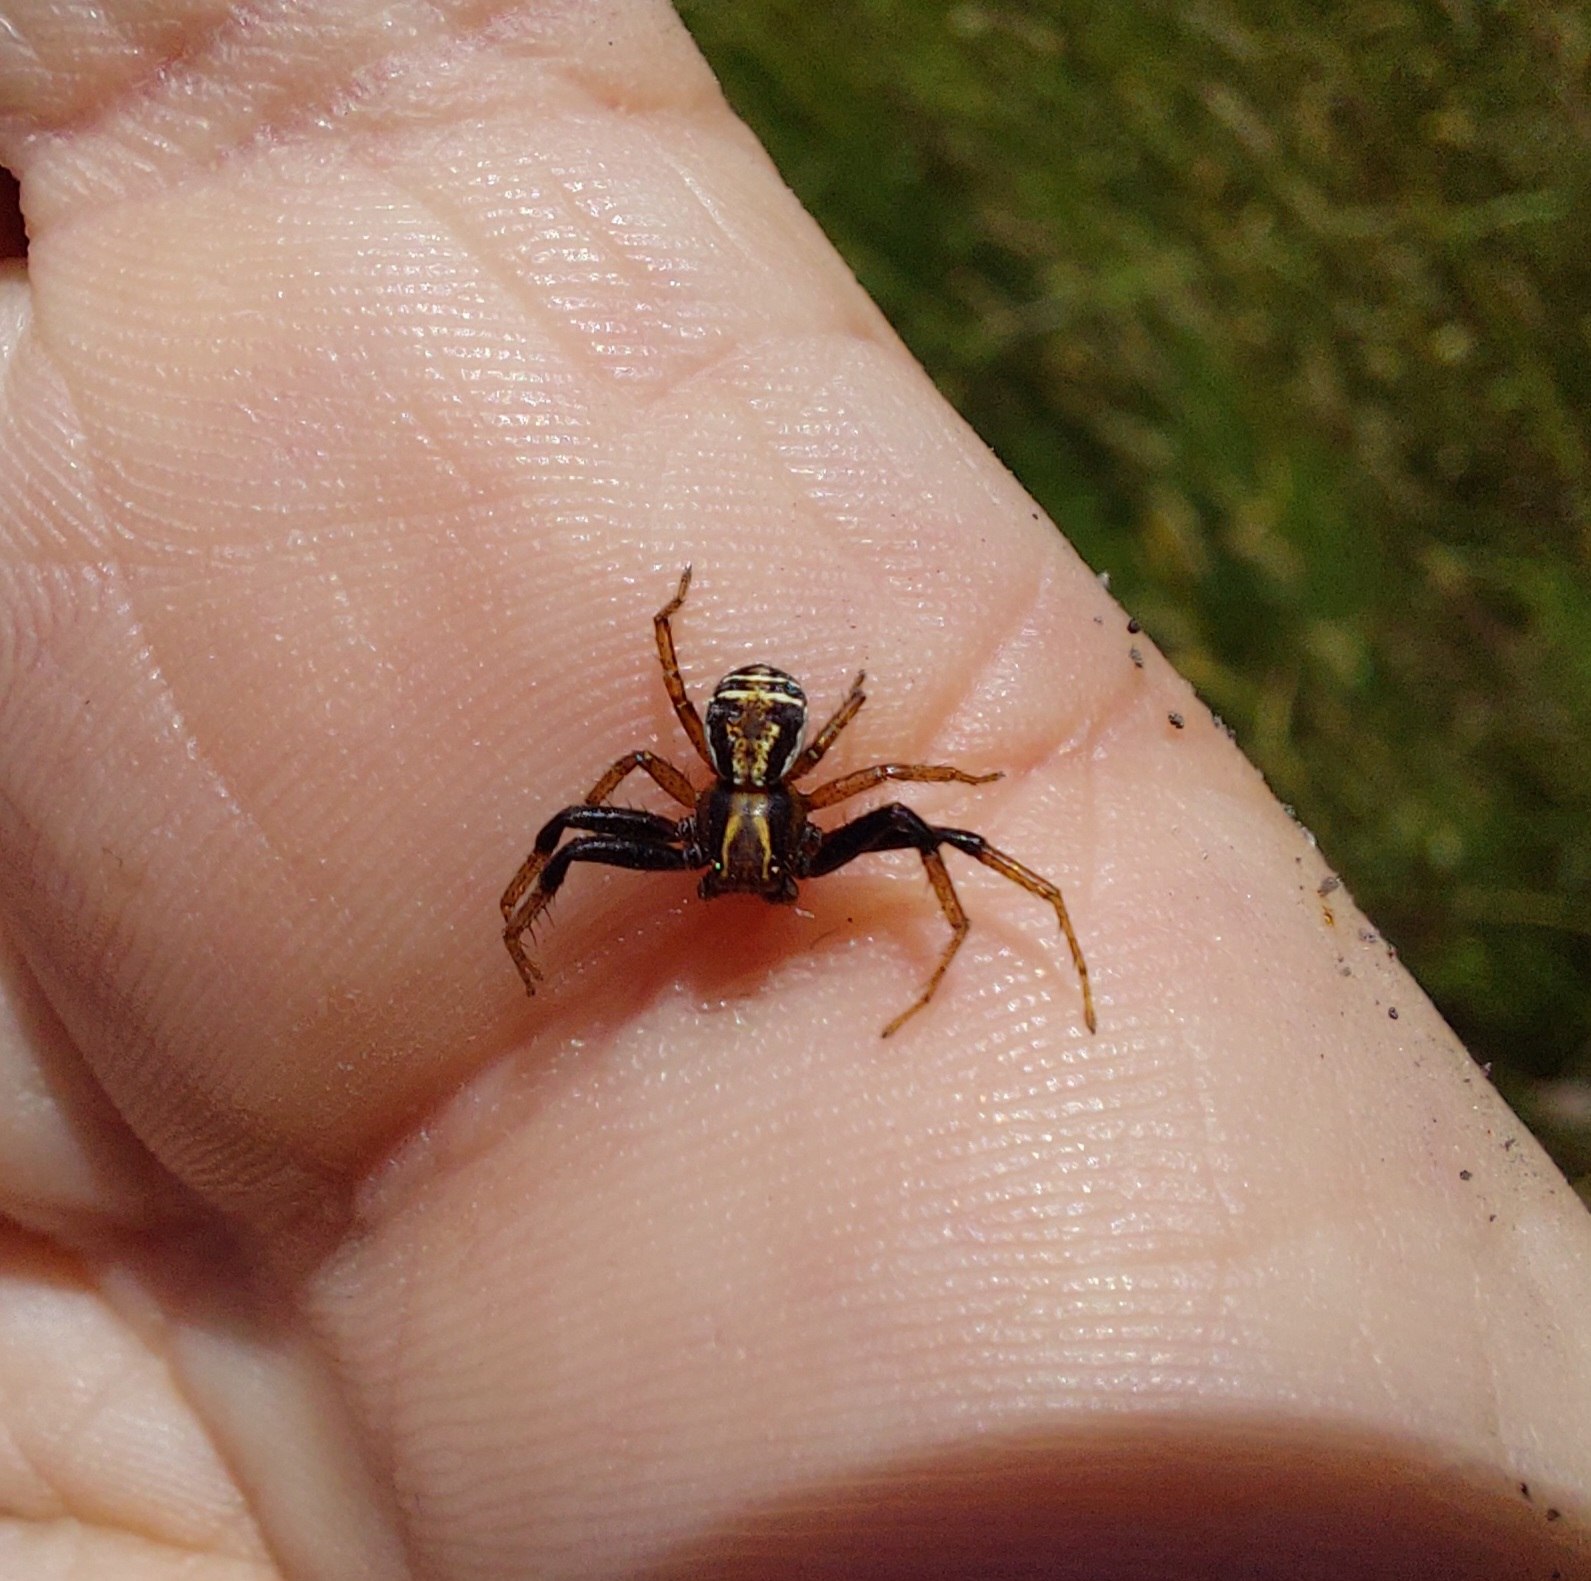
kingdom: Animalia
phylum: Arthropoda
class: Arachnida
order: Araneae
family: Thomisidae
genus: Xysticus
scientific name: Xysticus ulmi
